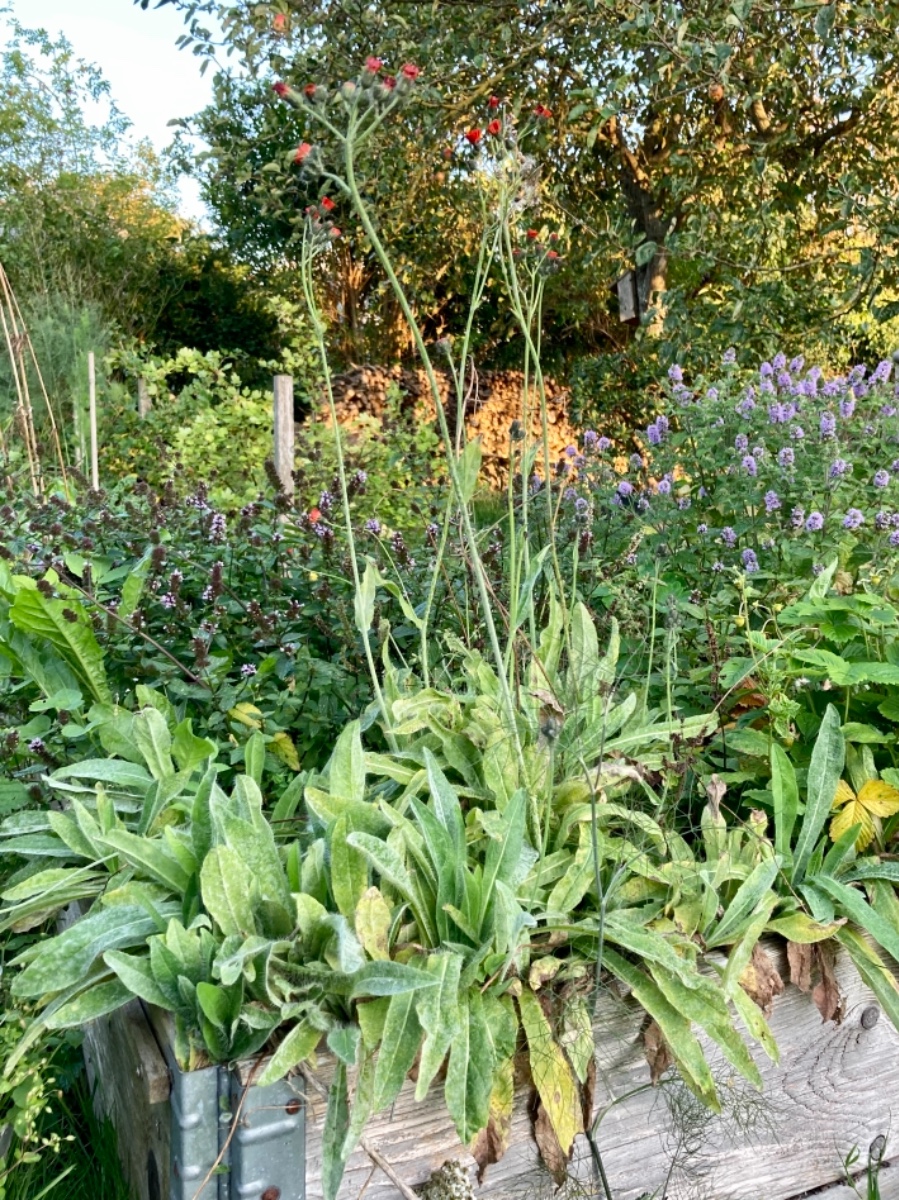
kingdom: Fungi
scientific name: Fungi
